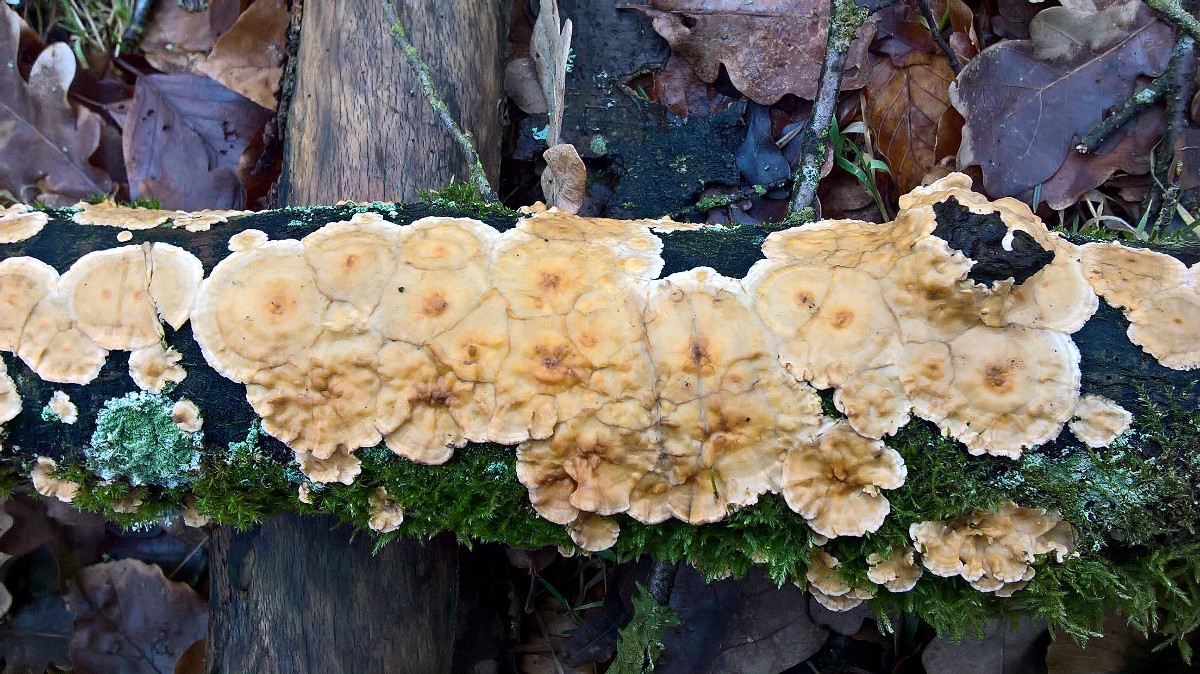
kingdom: Fungi
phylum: Basidiomycota
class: Agaricomycetes
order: Russulales
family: Stereaceae
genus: Stereum
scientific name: Stereum hirsutum
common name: håret lædersvamp
